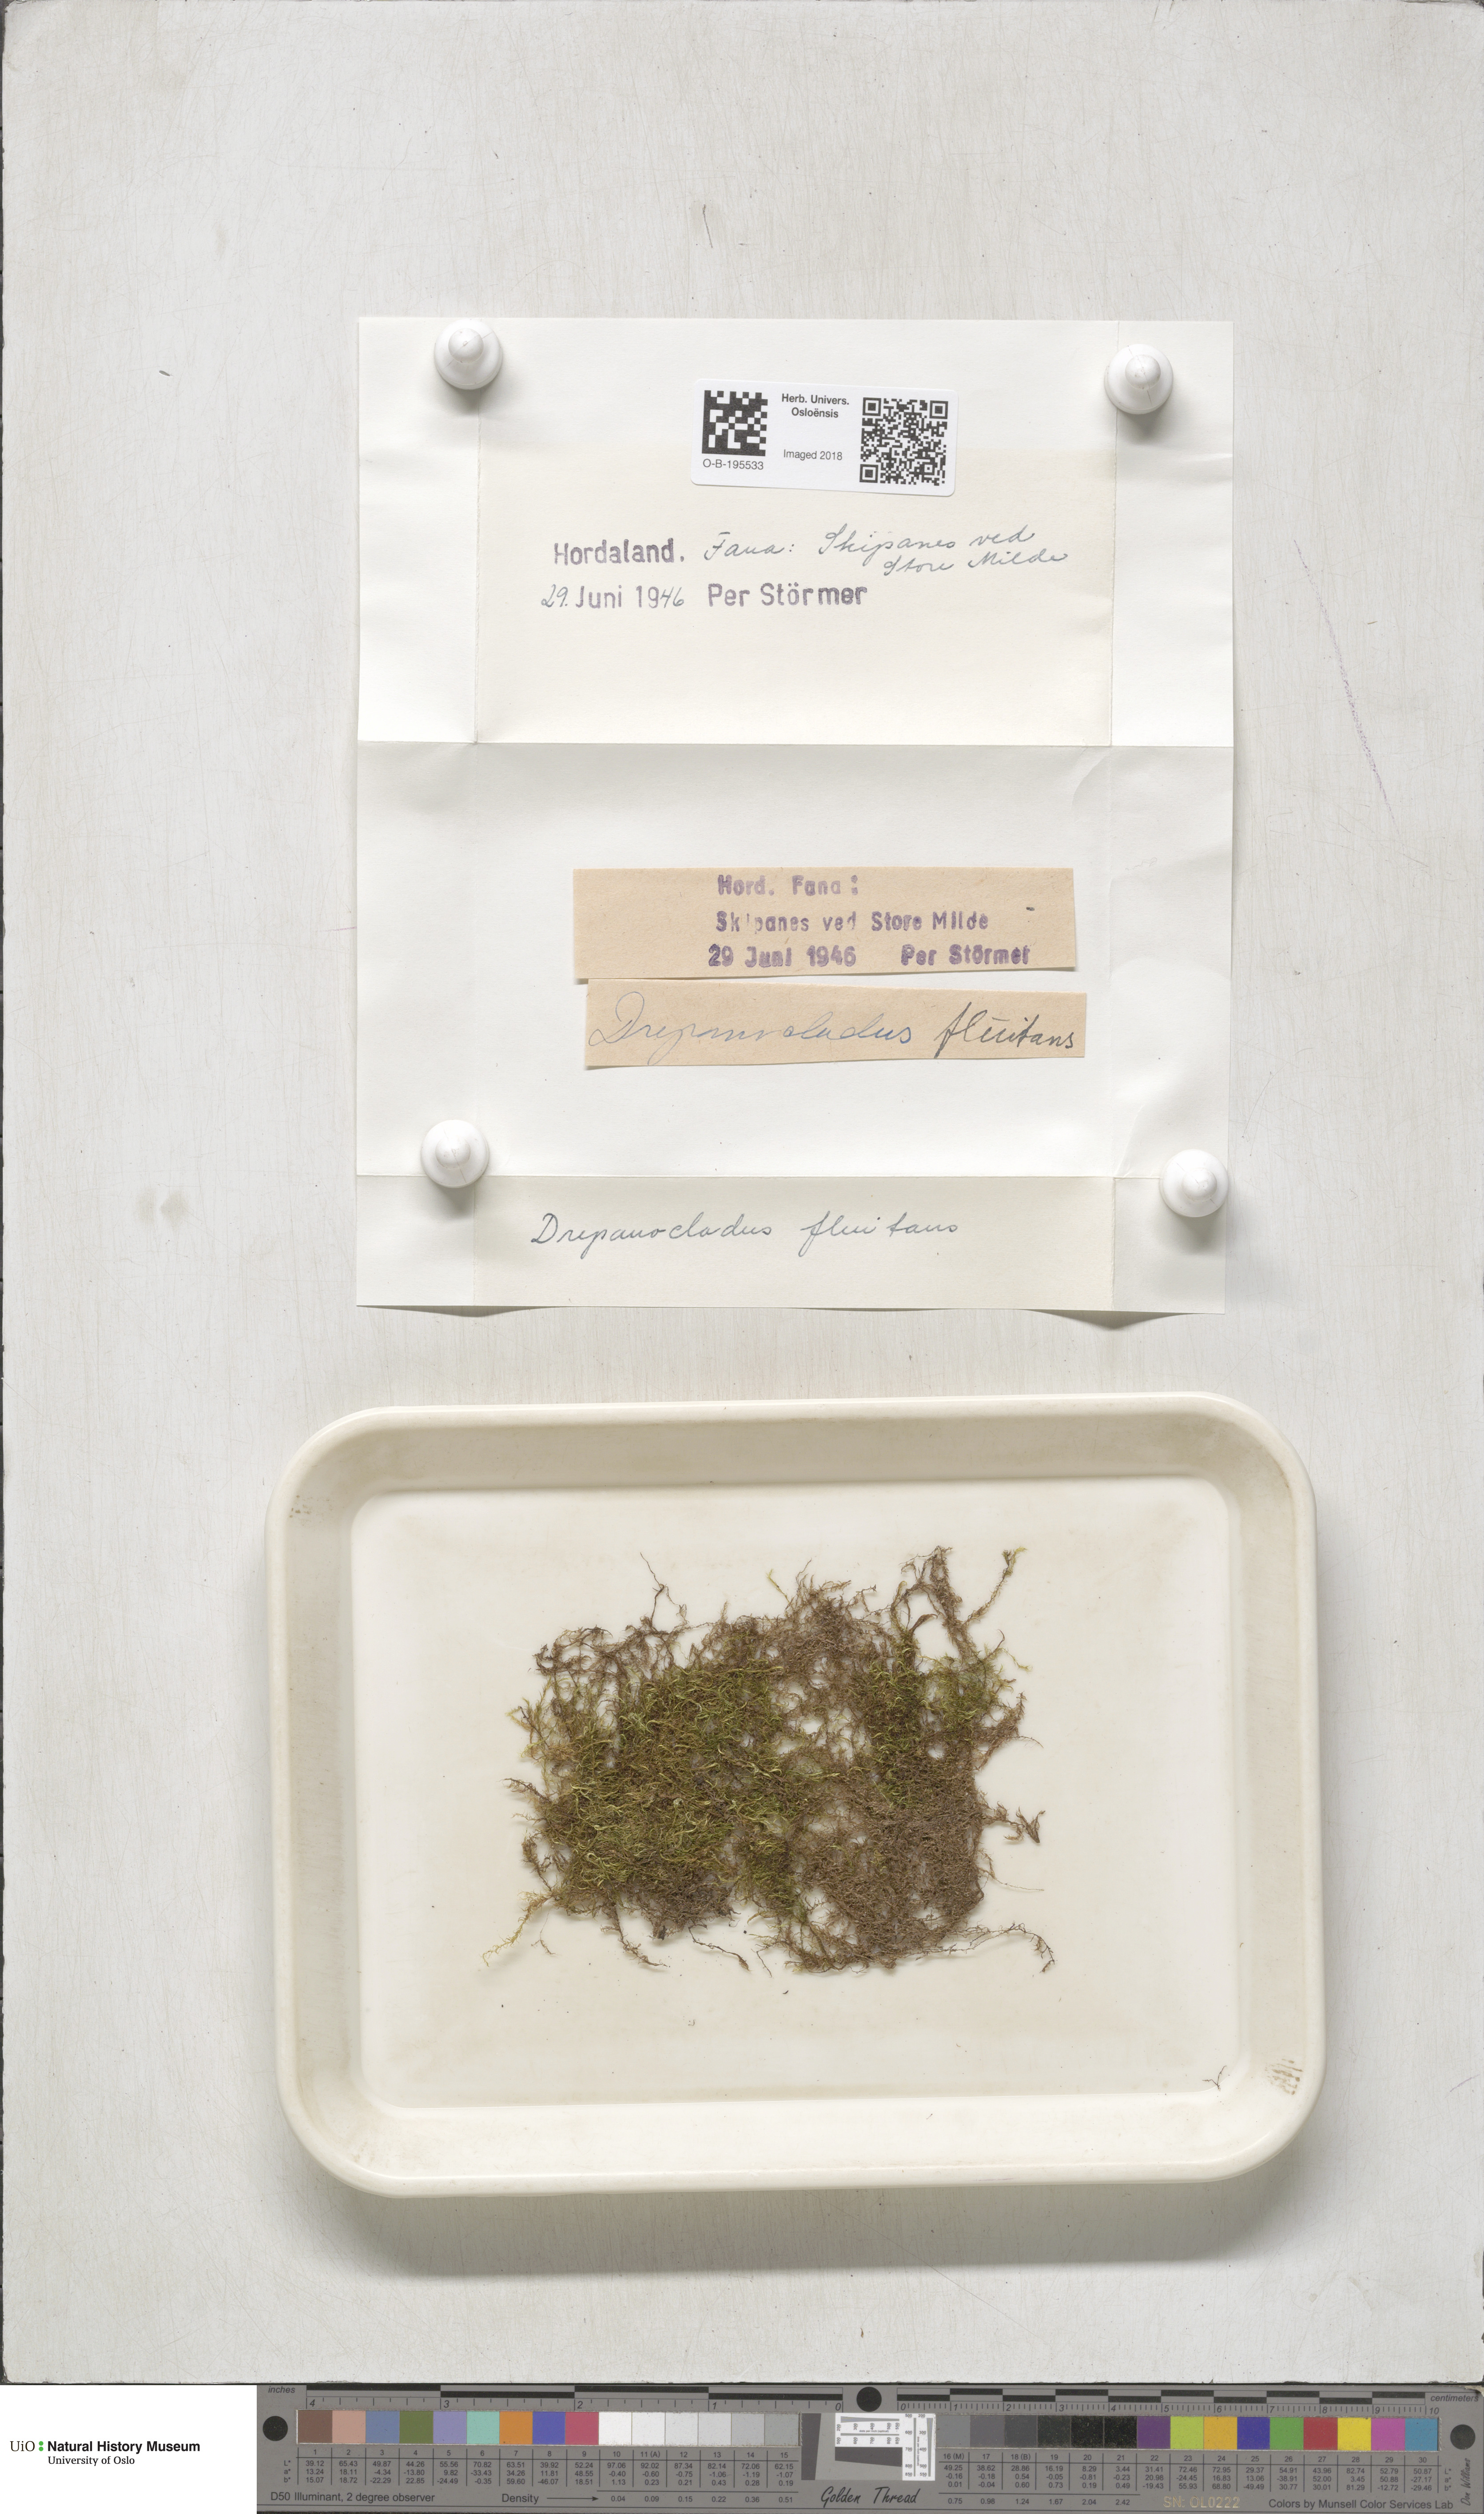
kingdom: Plantae
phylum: Bryophyta
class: Bryopsida
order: Hypnales
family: Calliergonaceae
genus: Warnstorfia
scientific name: Warnstorfia fluitans
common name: Floating hook moss
